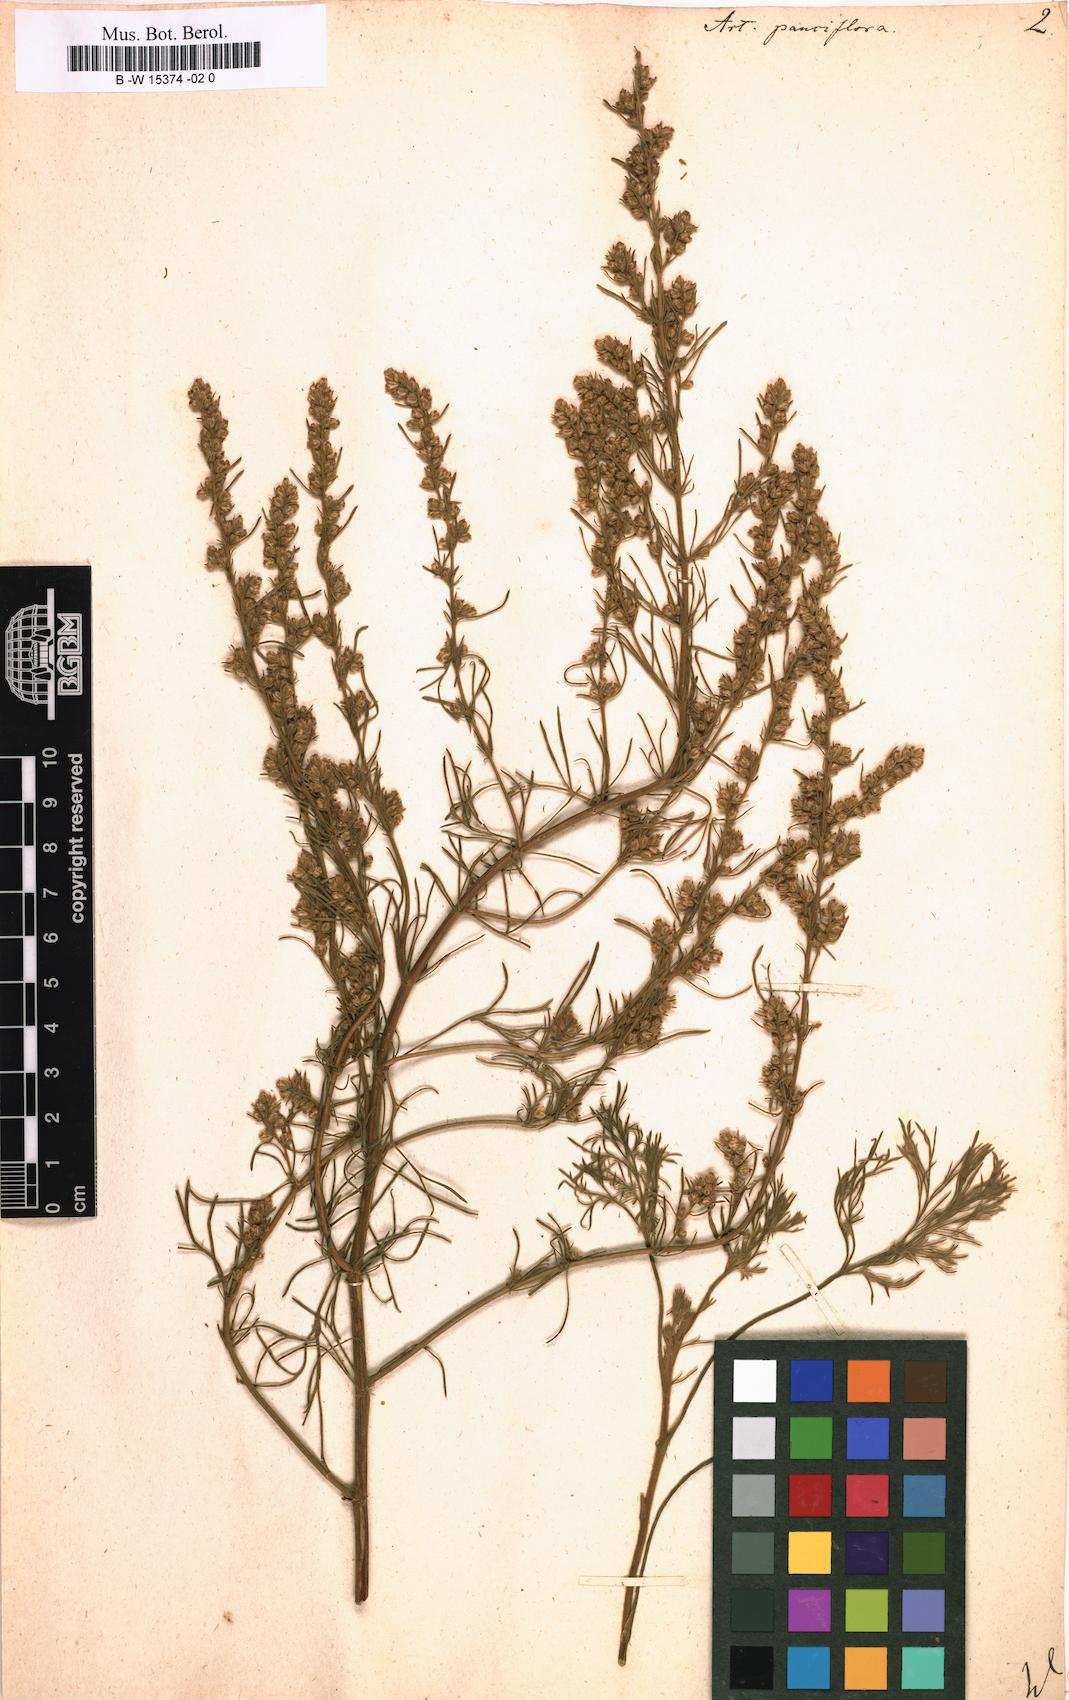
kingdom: Plantae
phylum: Tracheophyta
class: Magnoliopsida
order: Asterales
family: Asteraceae
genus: Artemisia
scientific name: Artemisia pauciflora
